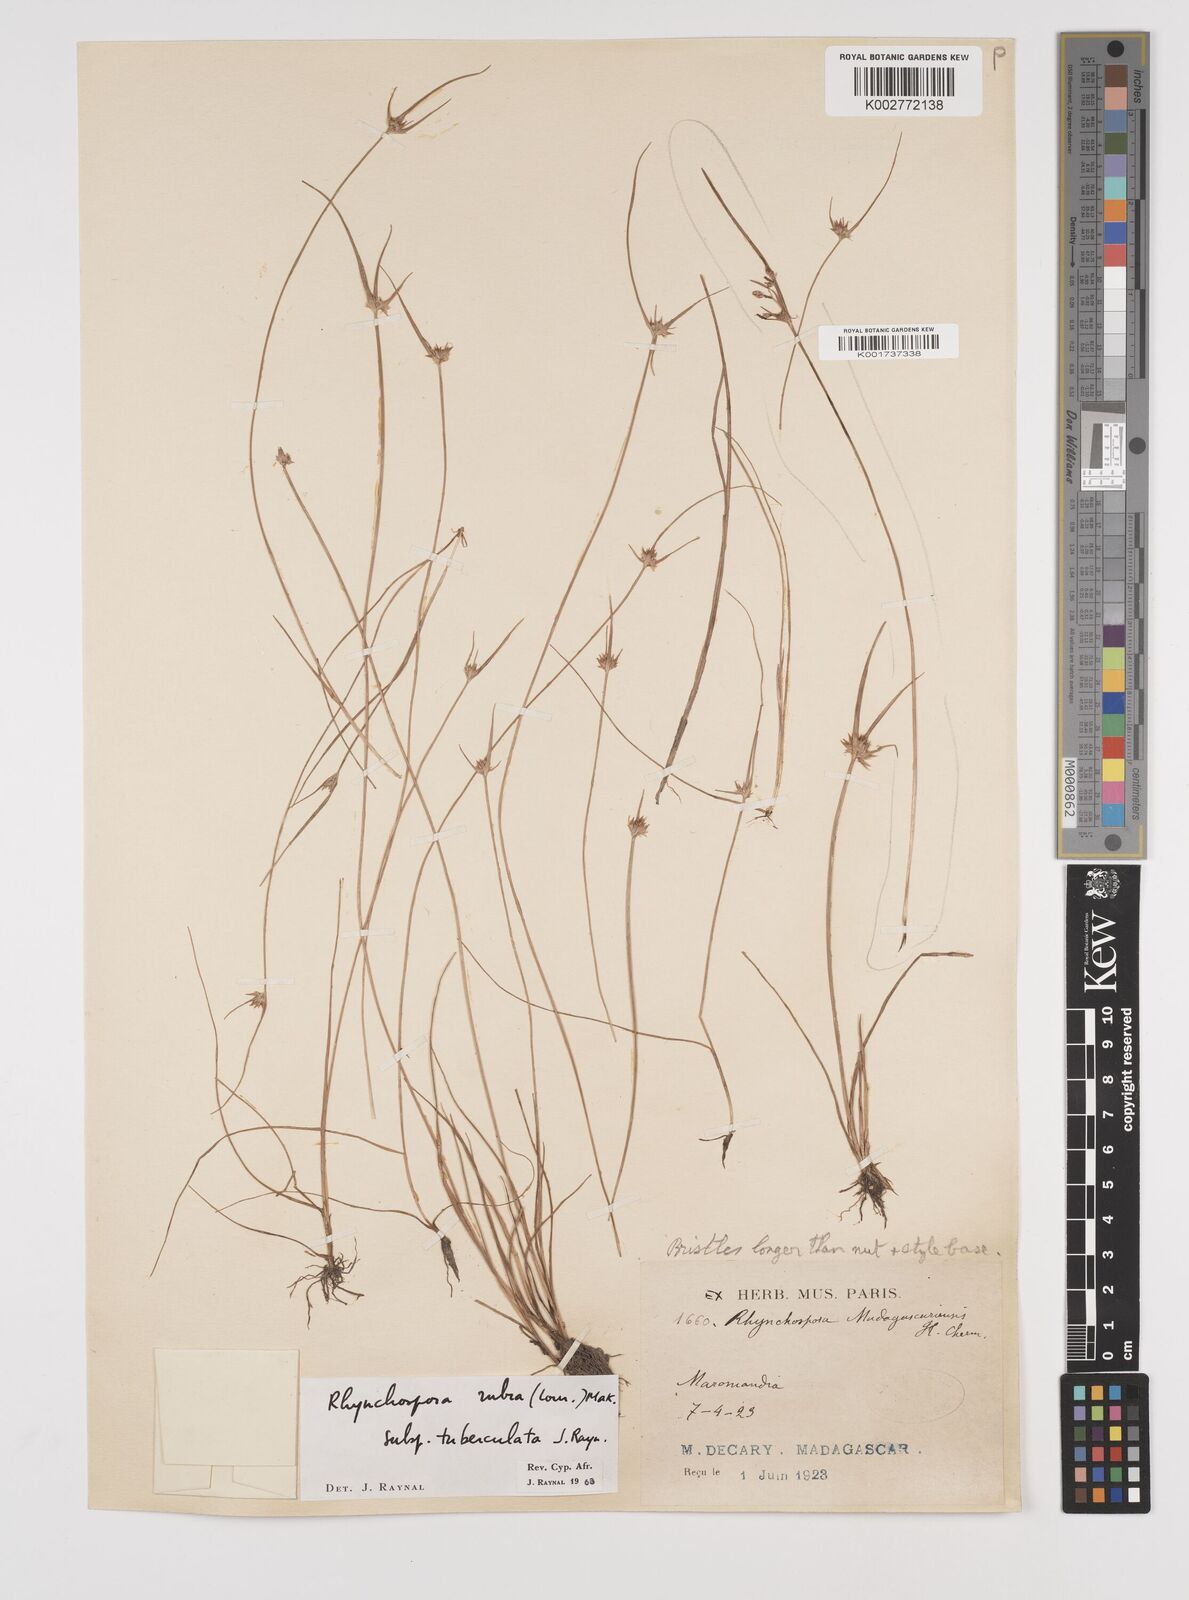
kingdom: Plantae
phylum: Tracheophyta
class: Liliopsida
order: Poales
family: Cyperaceae
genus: Rhynchospora
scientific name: Rhynchospora rubra
